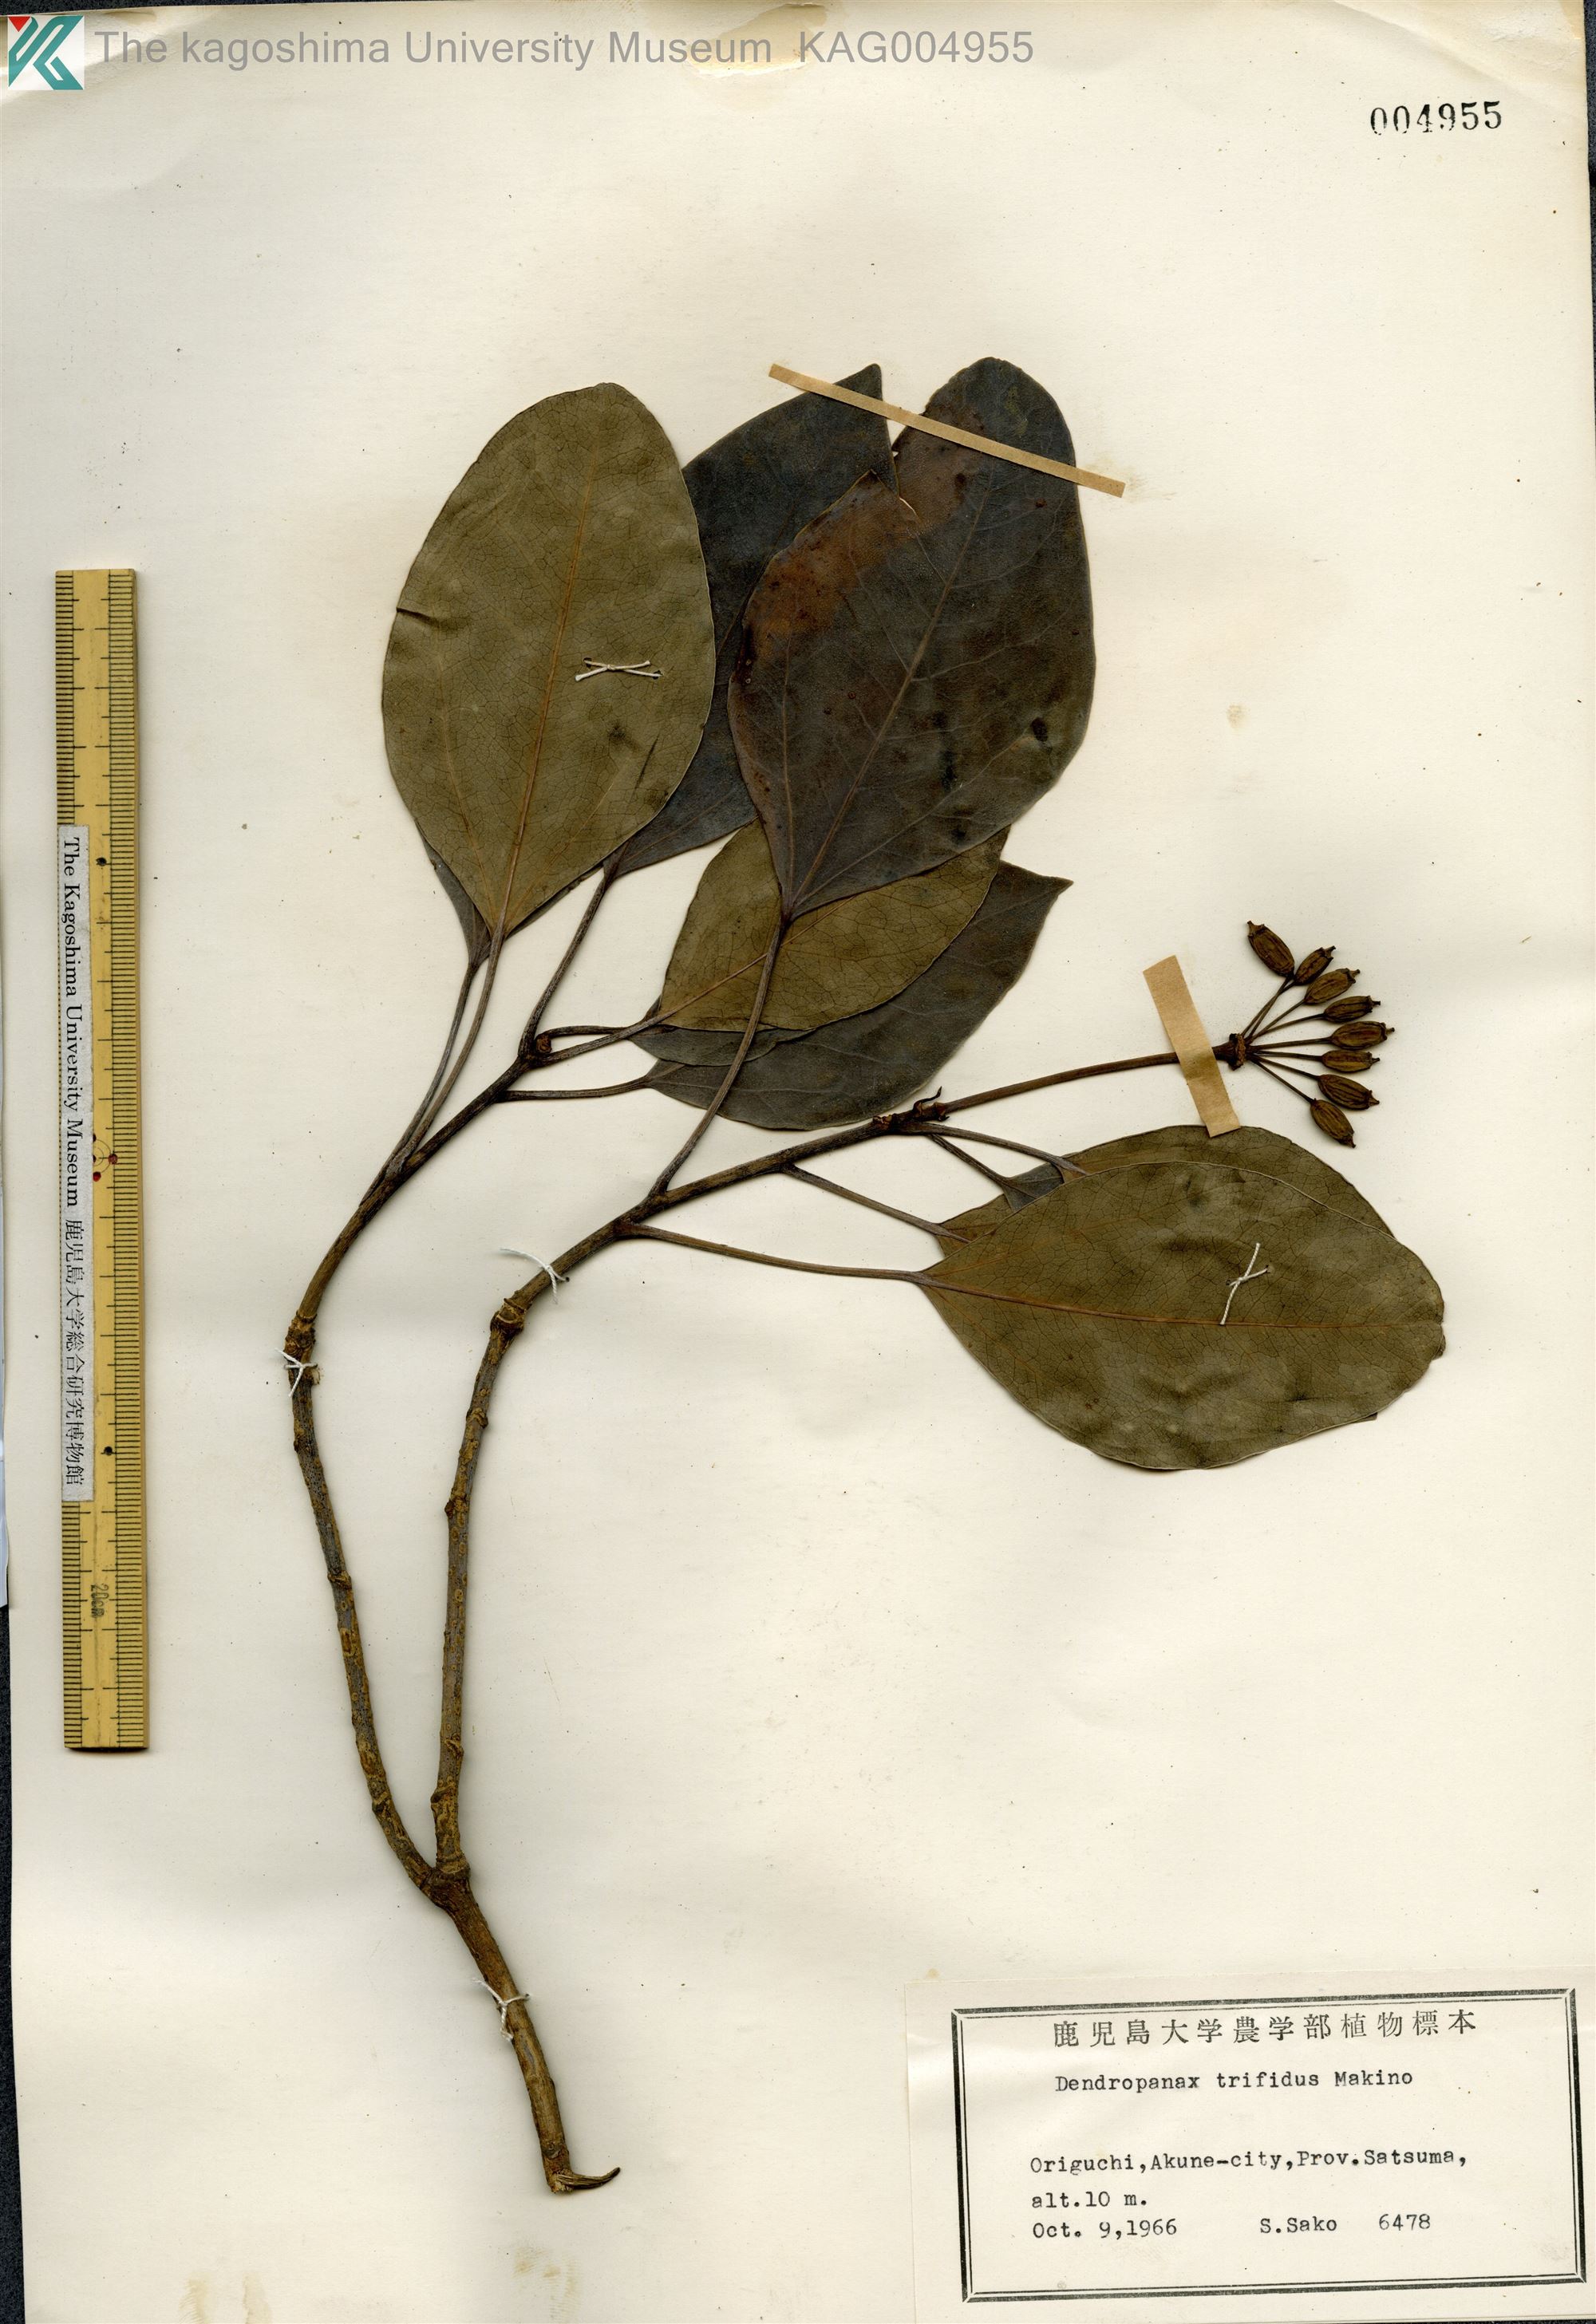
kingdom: Plantae
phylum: Tracheophyta
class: Magnoliopsida
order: Apiales
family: Araliaceae
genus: Dendropanax
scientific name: Dendropanax trifidus
